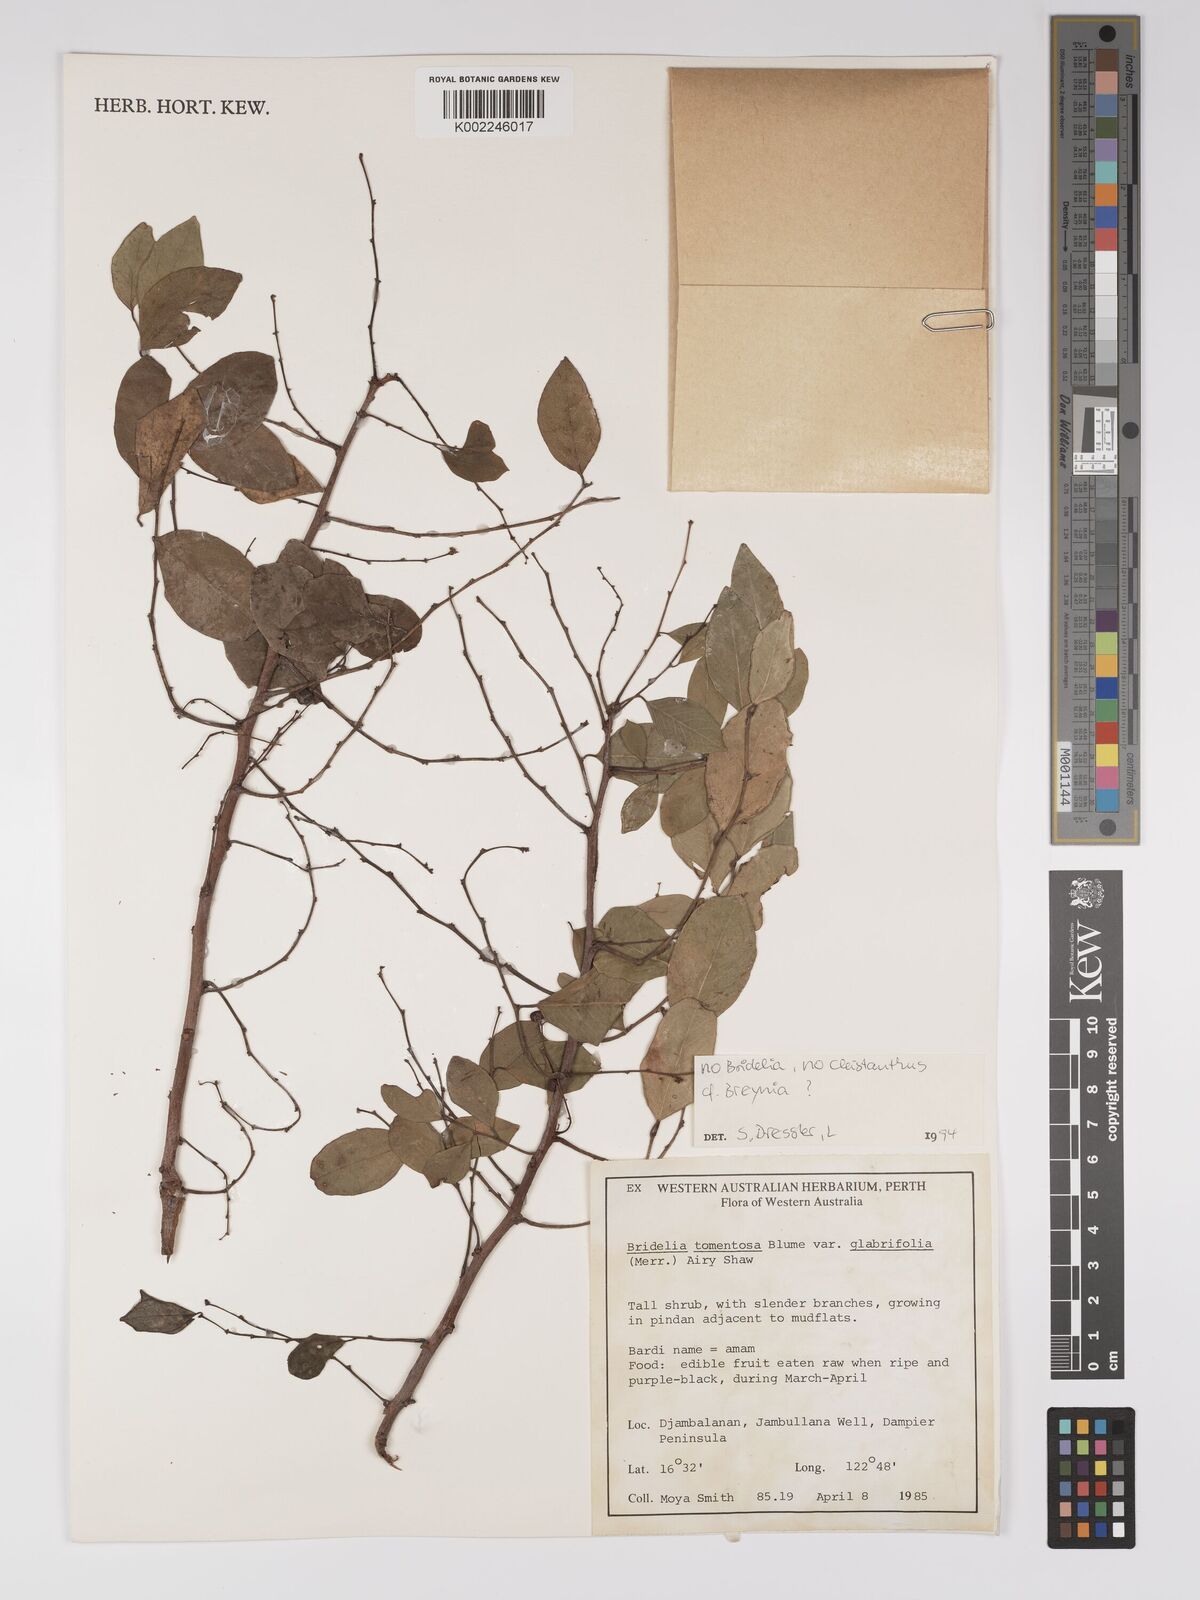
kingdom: Plantae
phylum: Tracheophyta
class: Magnoliopsida
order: Malpighiales
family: Euphorbiaceae
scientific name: Euphorbiaceae
